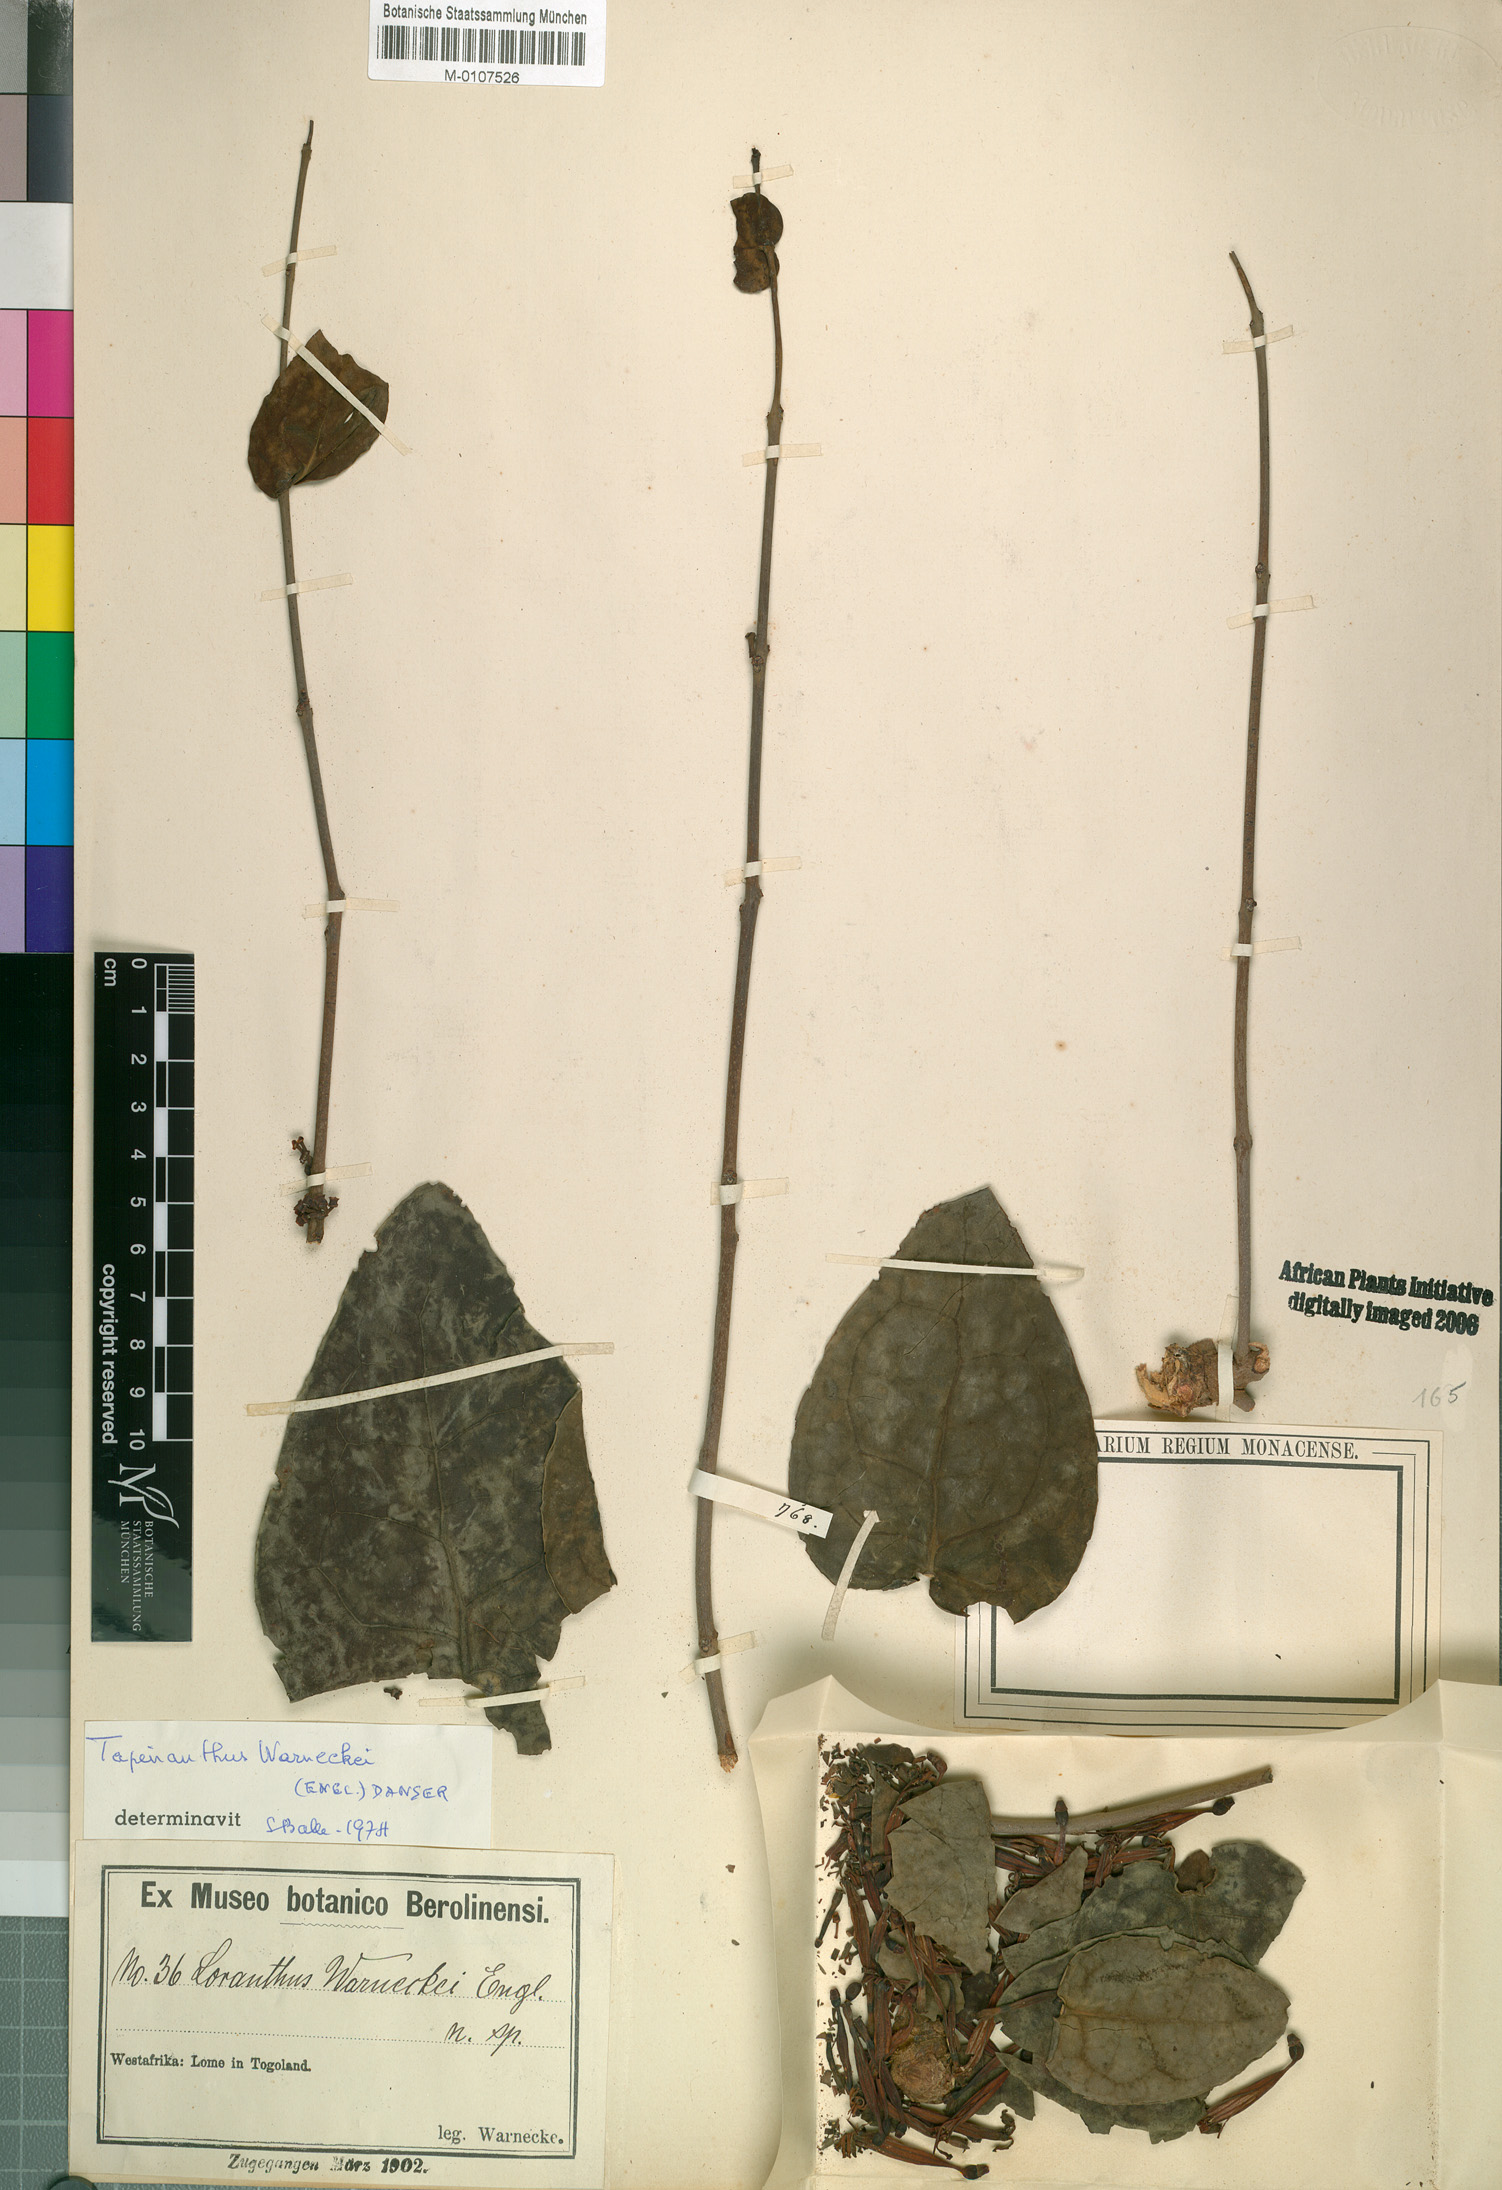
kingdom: Plantae
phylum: Tracheophyta
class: Magnoliopsida
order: Santalales
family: Loranthaceae
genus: Tapinanthus
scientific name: Tapinanthus sessilifolius
